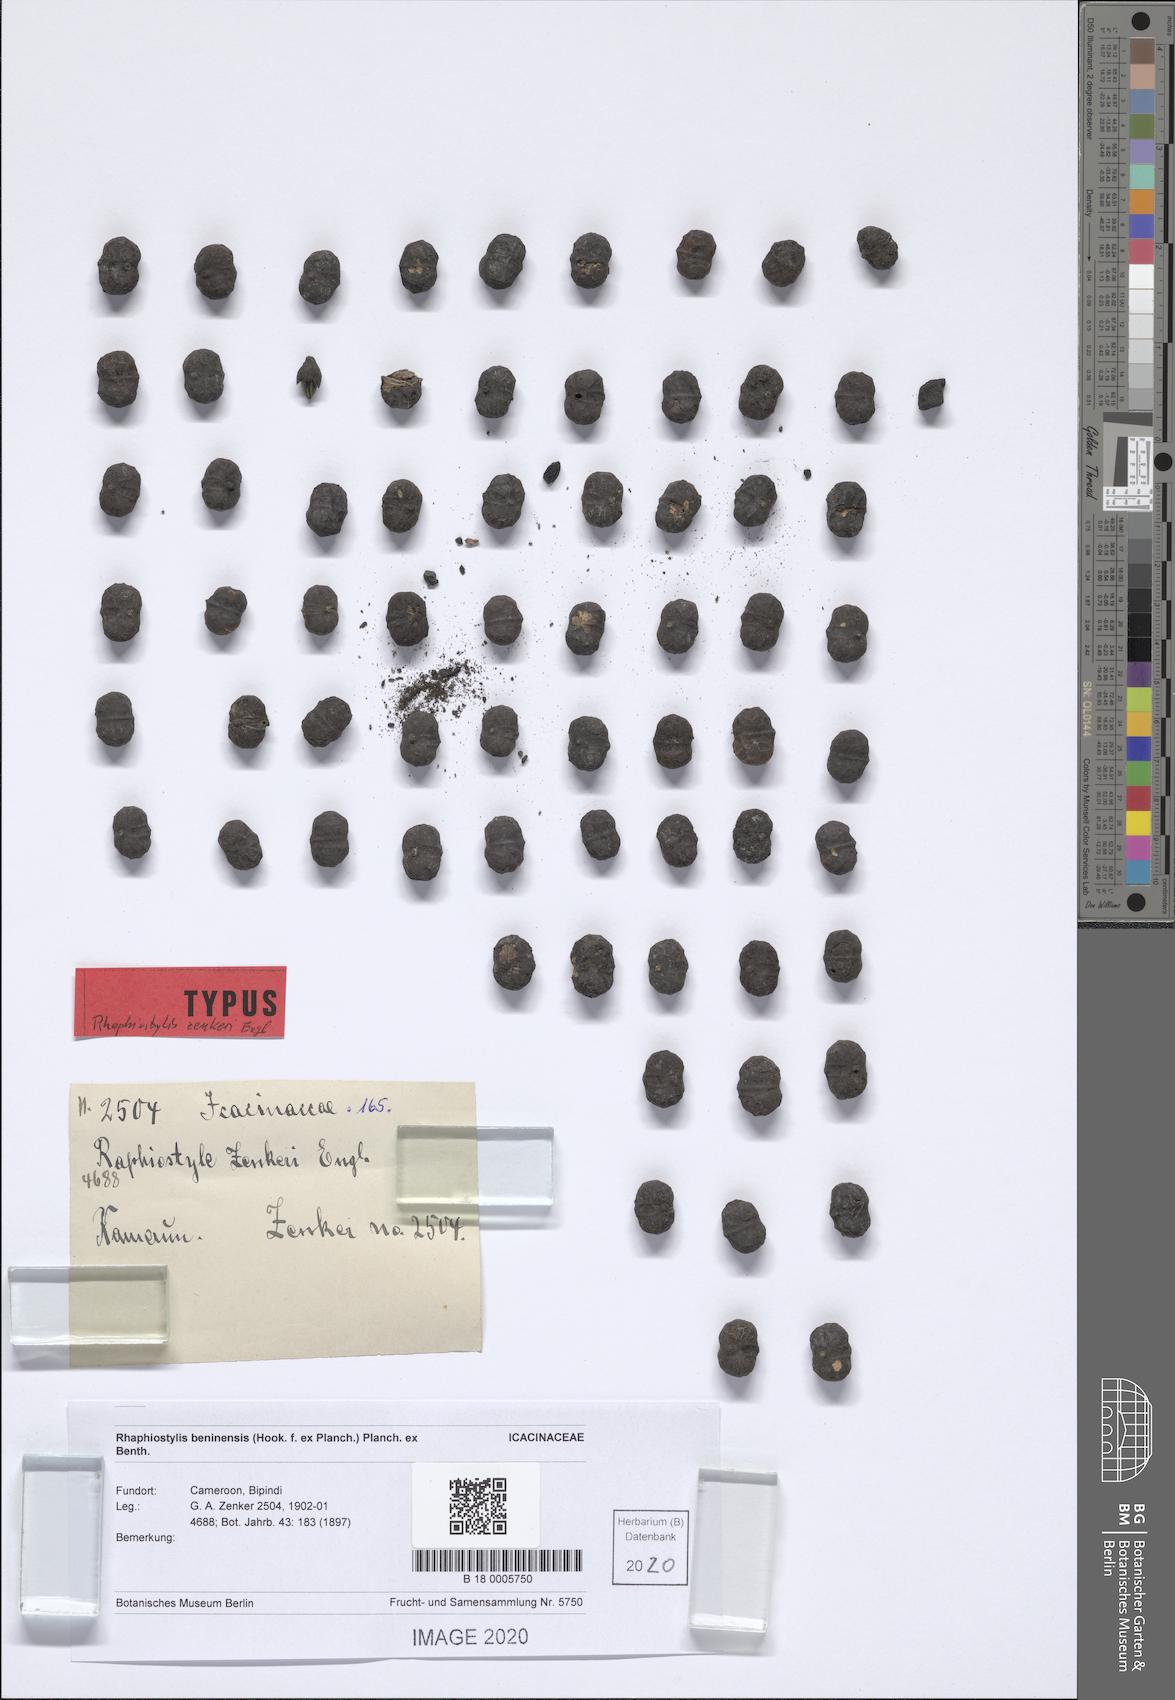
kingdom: Plantae
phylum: Tracheophyta
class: Magnoliopsida
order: Metteniusales
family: Metteniusaceae
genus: Rhaphiostylis
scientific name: Rhaphiostylis beninensis
